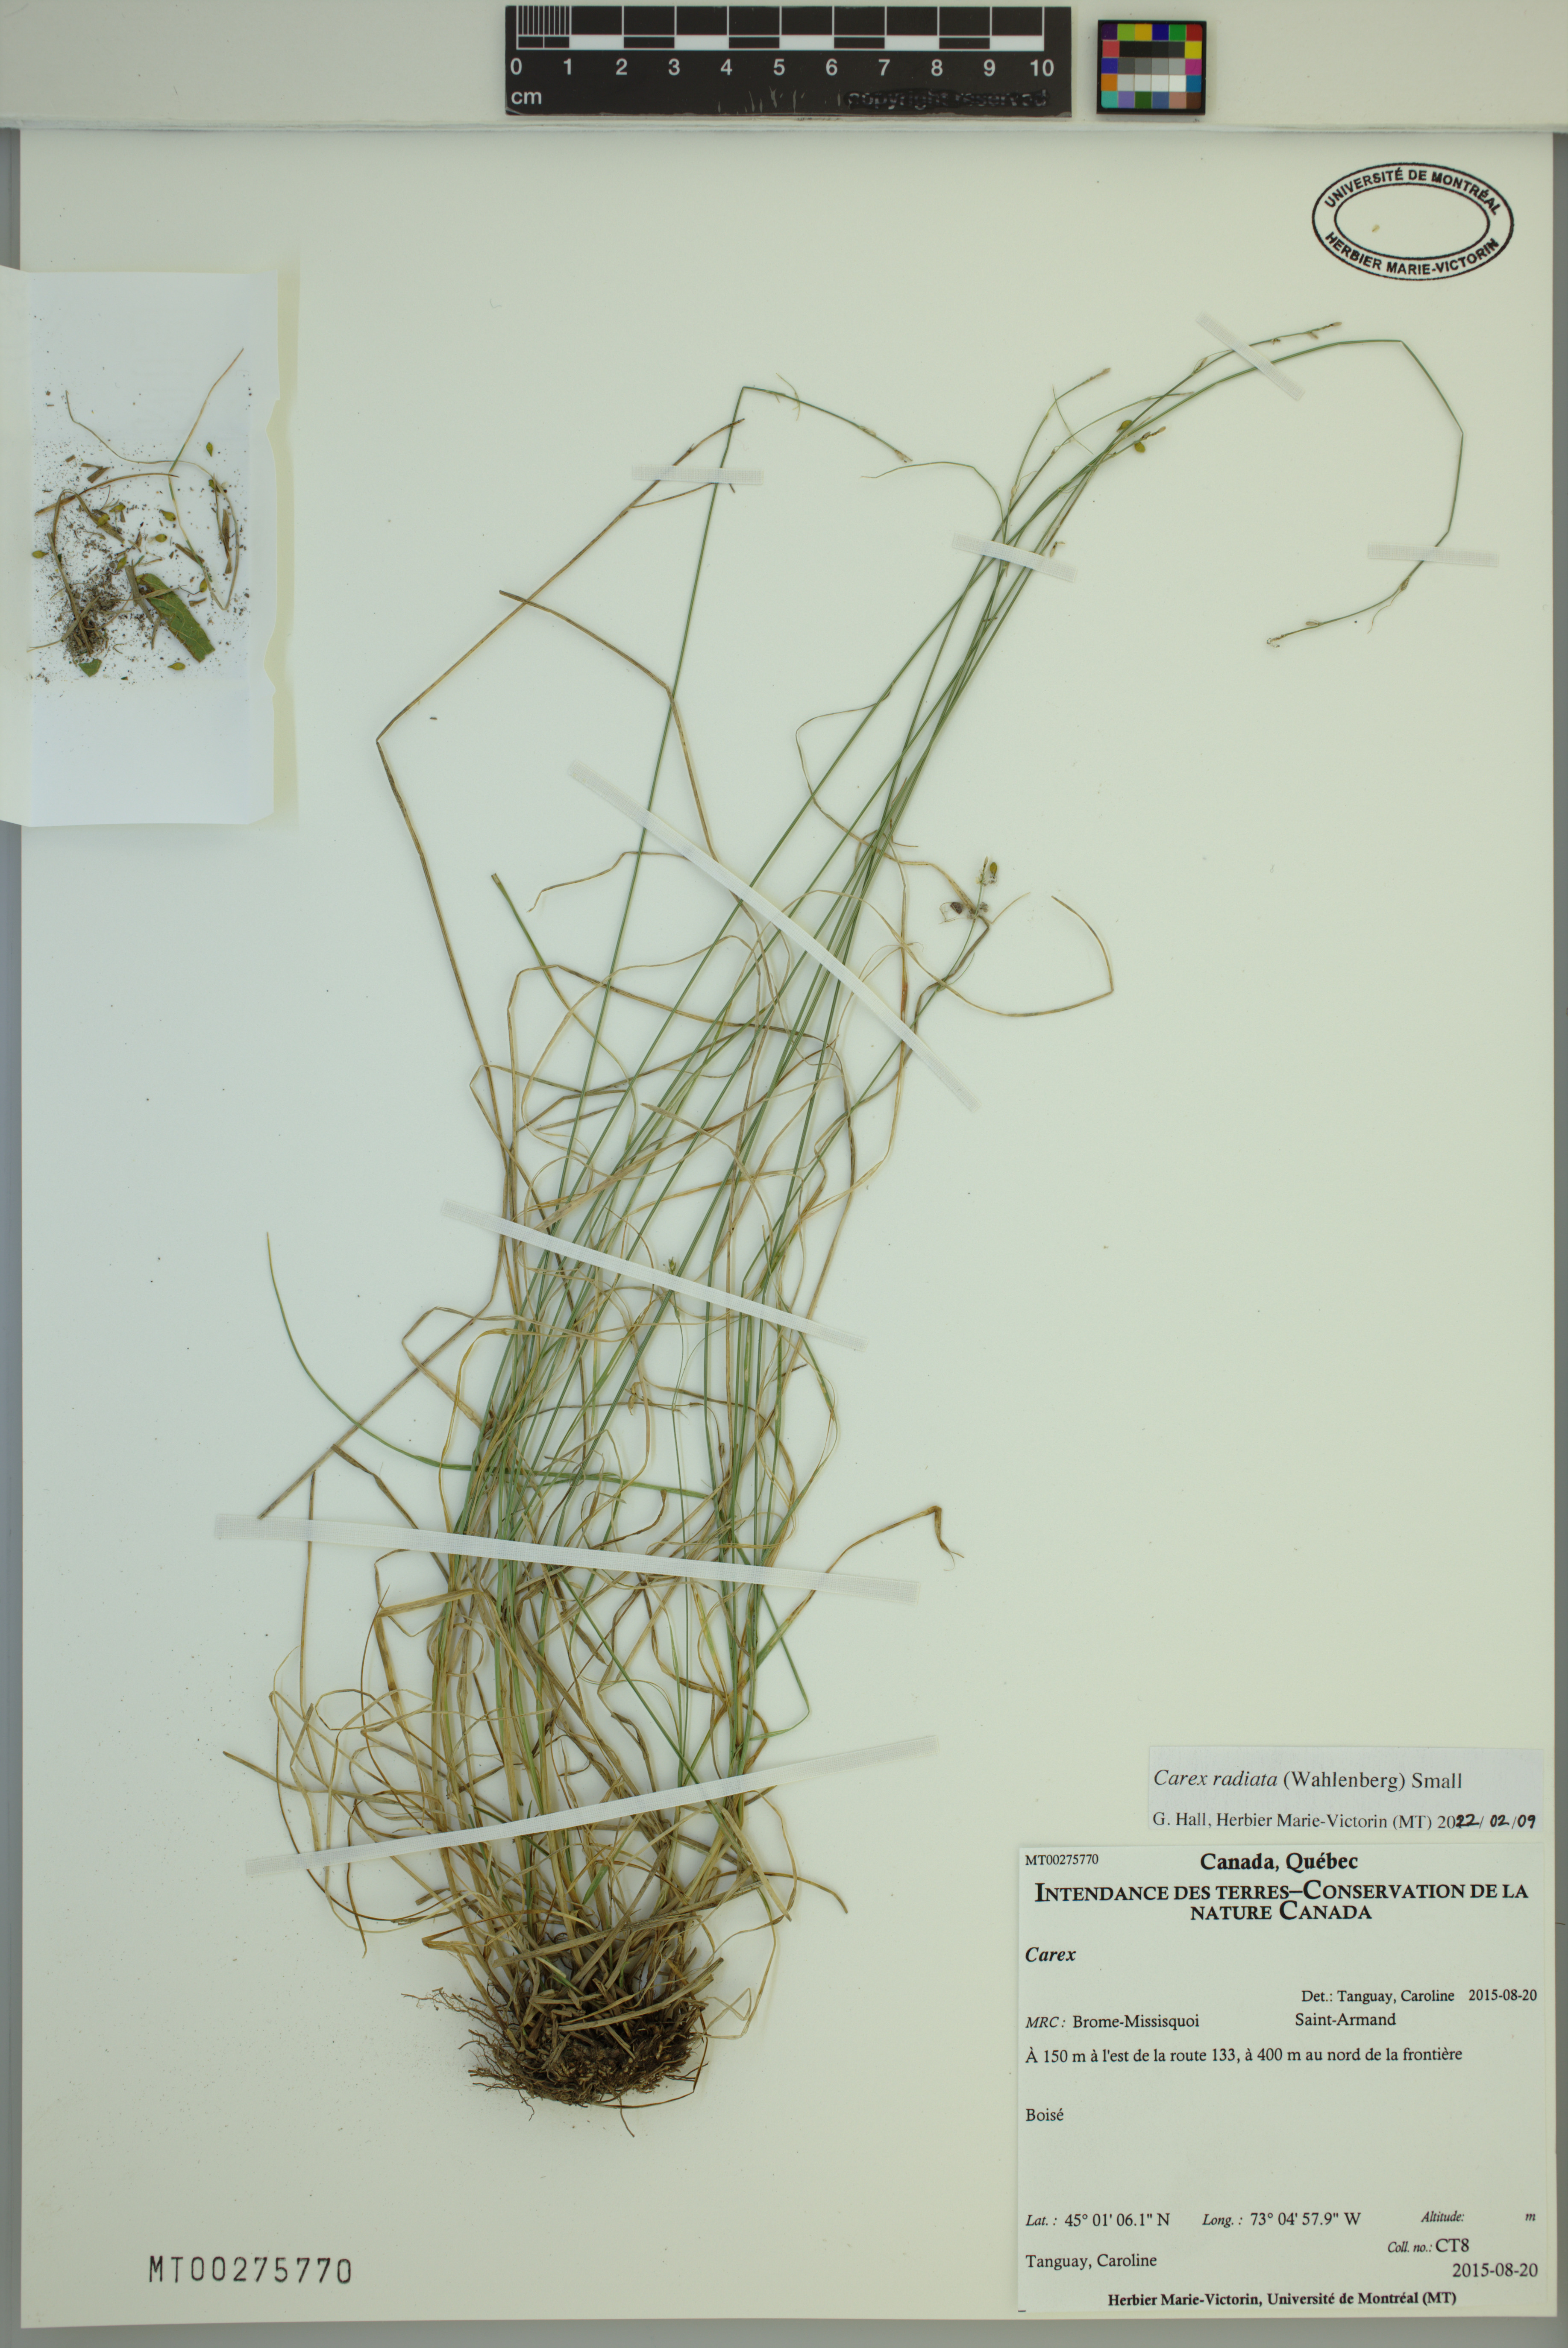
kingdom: Plantae
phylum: Tracheophyta
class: Liliopsida
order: Poales
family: Cyperaceae
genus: Carex
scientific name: Carex radiata
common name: Eastern star sedge
